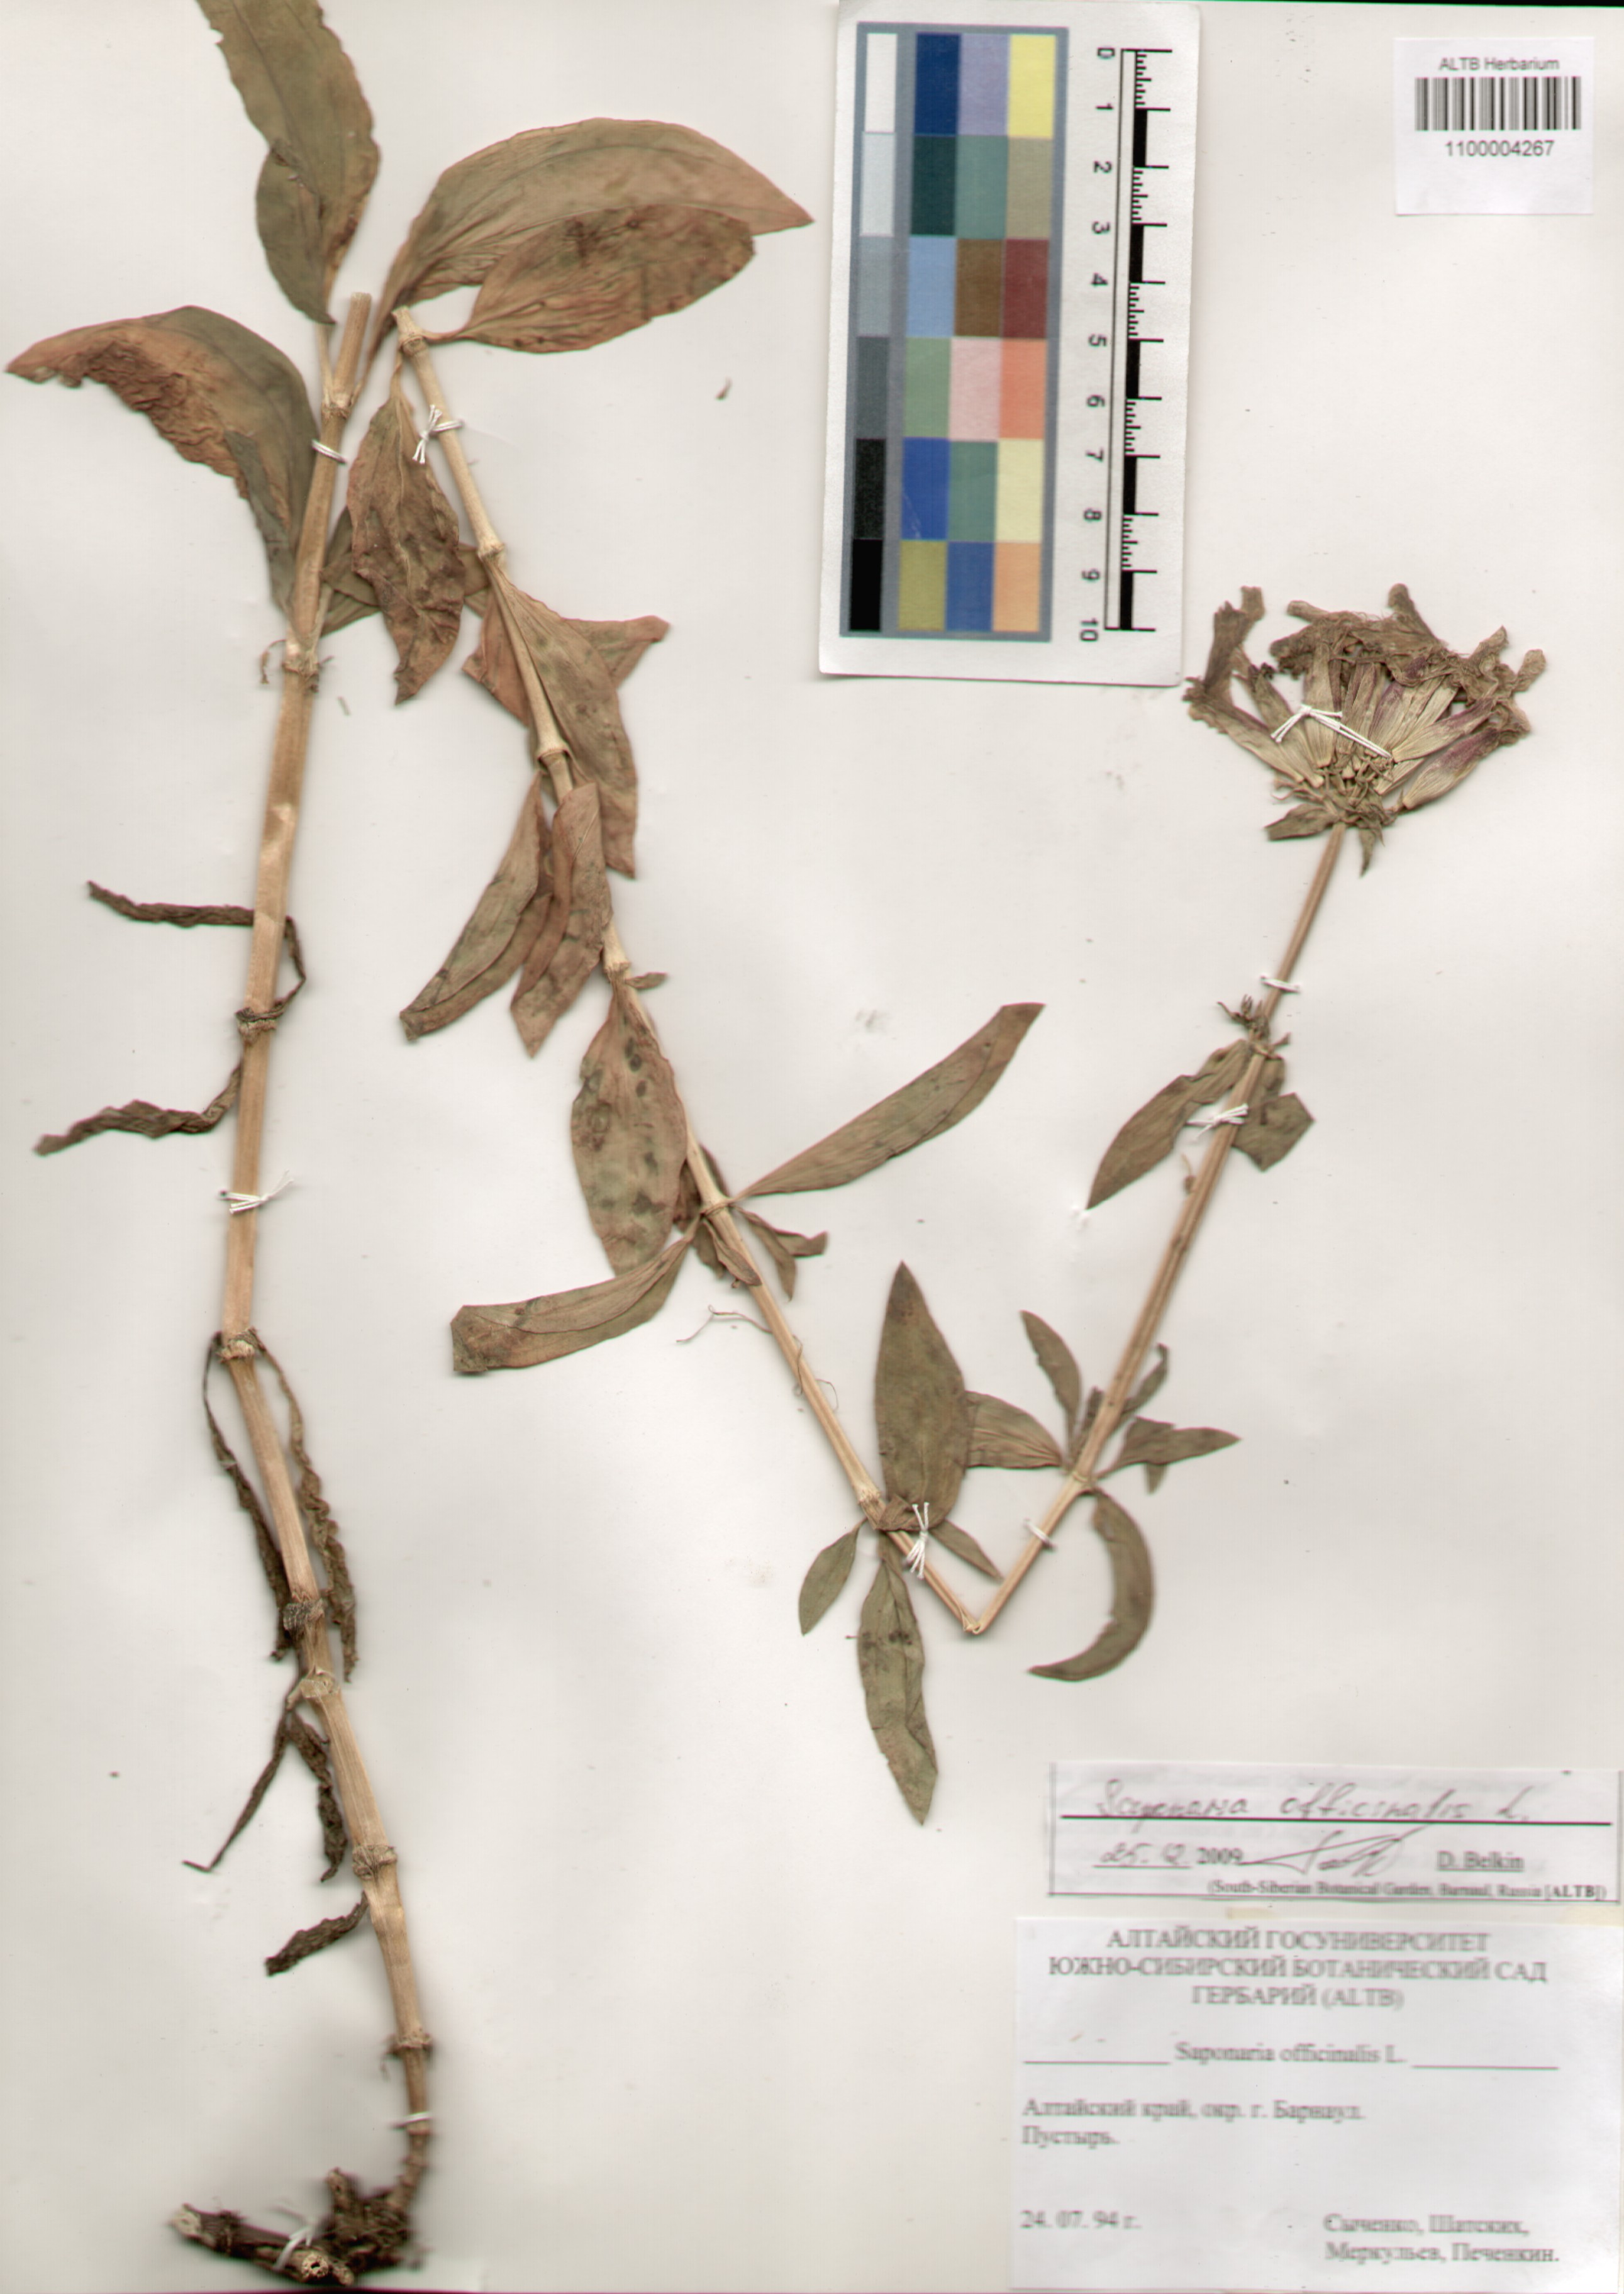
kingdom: Plantae
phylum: Tracheophyta
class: Magnoliopsida
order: Caryophyllales
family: Caryophyllaceae
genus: Saponaria
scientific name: Saponaria officinalis
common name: Soapwort
